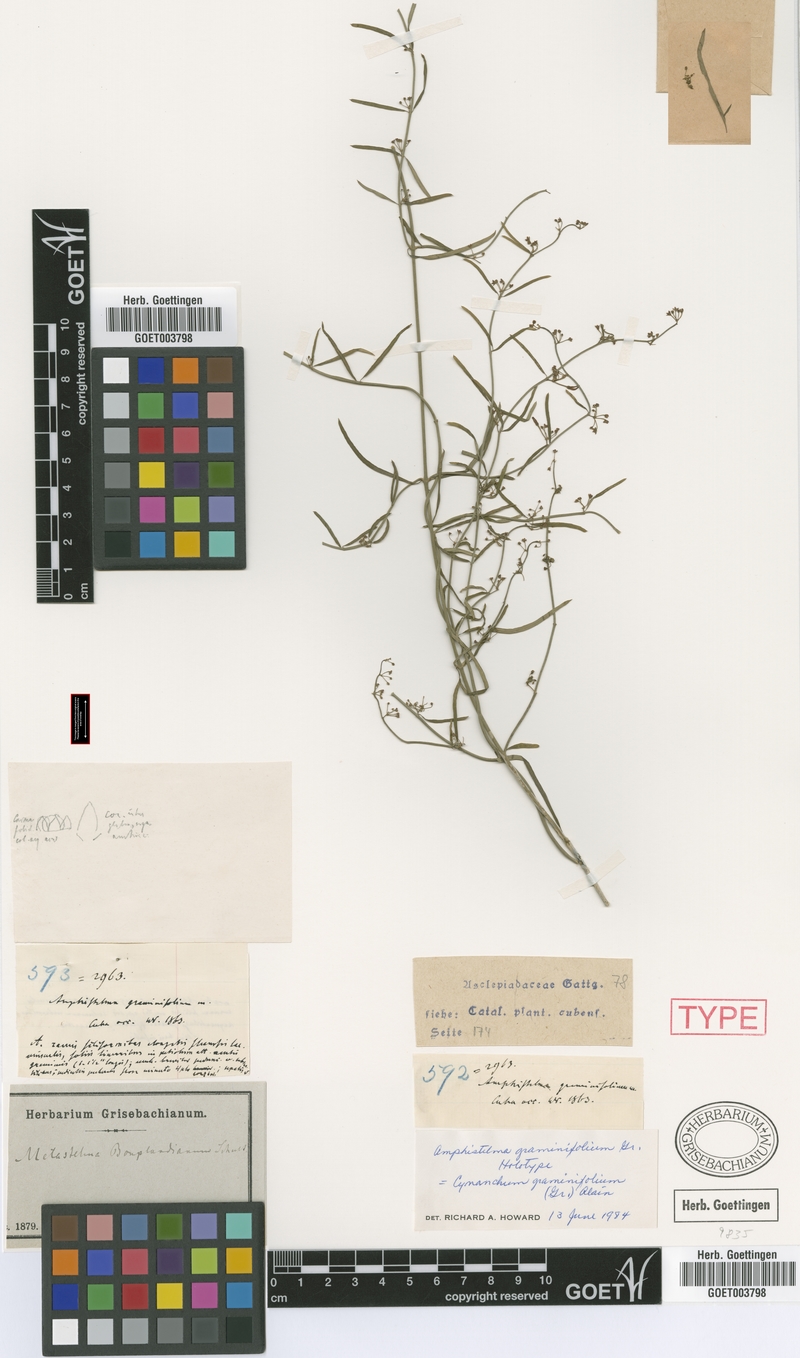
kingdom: Plantae
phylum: Tracheophyta
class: Magnoliopsida
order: Gentianales
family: Apocynaceae
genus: Orthosia
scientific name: Orthosia bonplandiana
